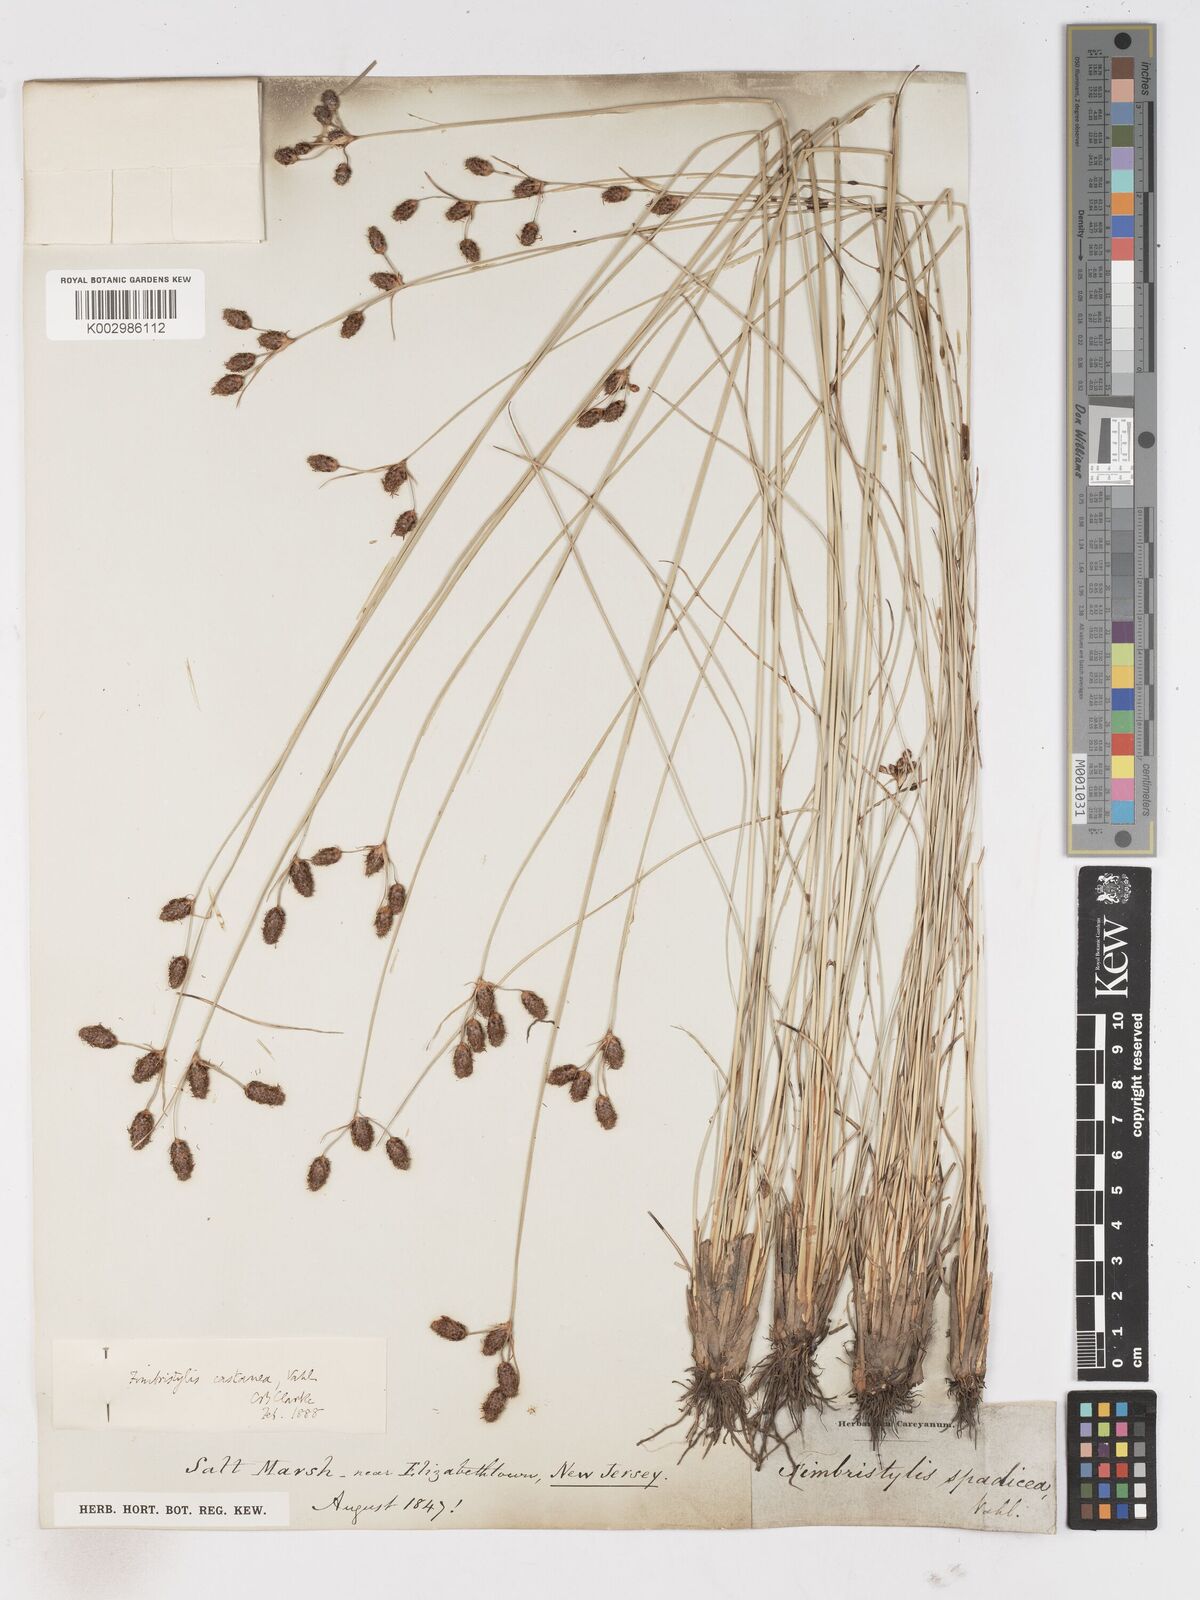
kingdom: Plantae
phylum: Tracheophyta
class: Liliopsida
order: Poales
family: Cyperaceae
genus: Fimbristylis
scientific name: Fimbristylis spadicea
